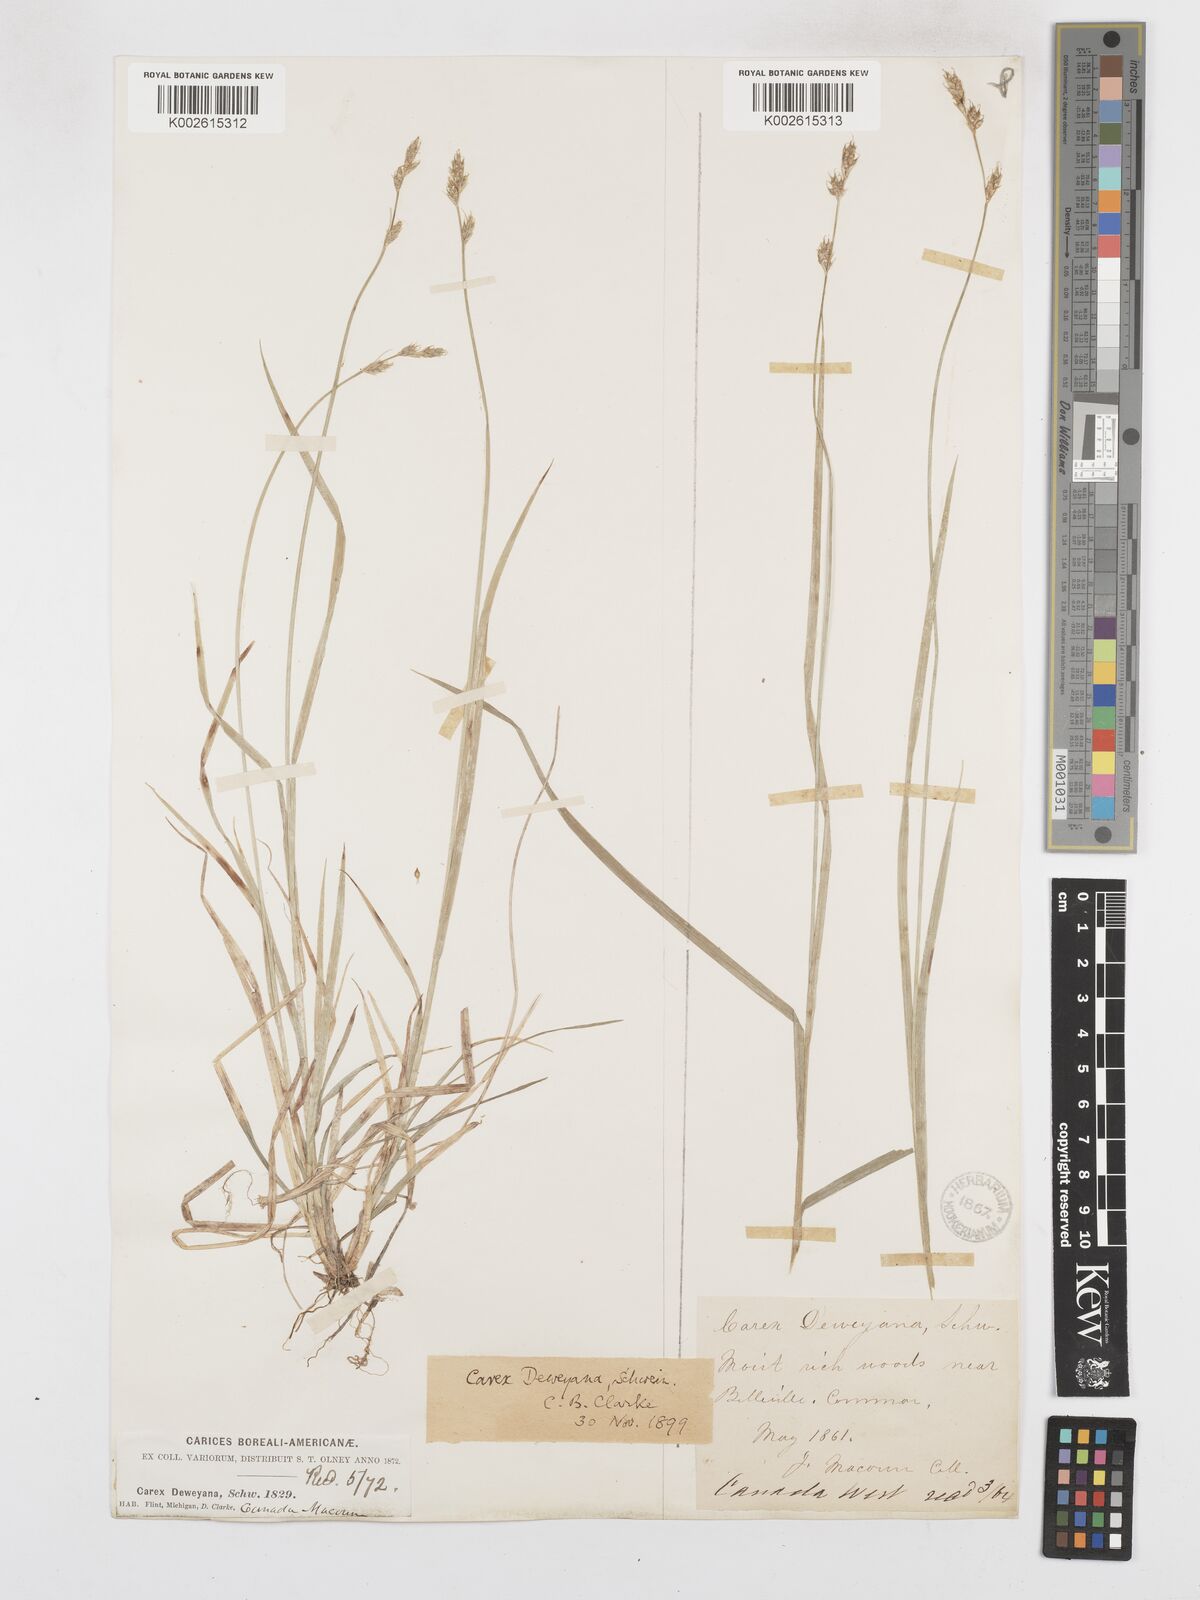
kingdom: Plantae
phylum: Tracheophyta
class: Liliopsida
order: Poales
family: Cyperaceae
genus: Carex
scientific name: Carex deweyana
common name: Dewey's sedge
